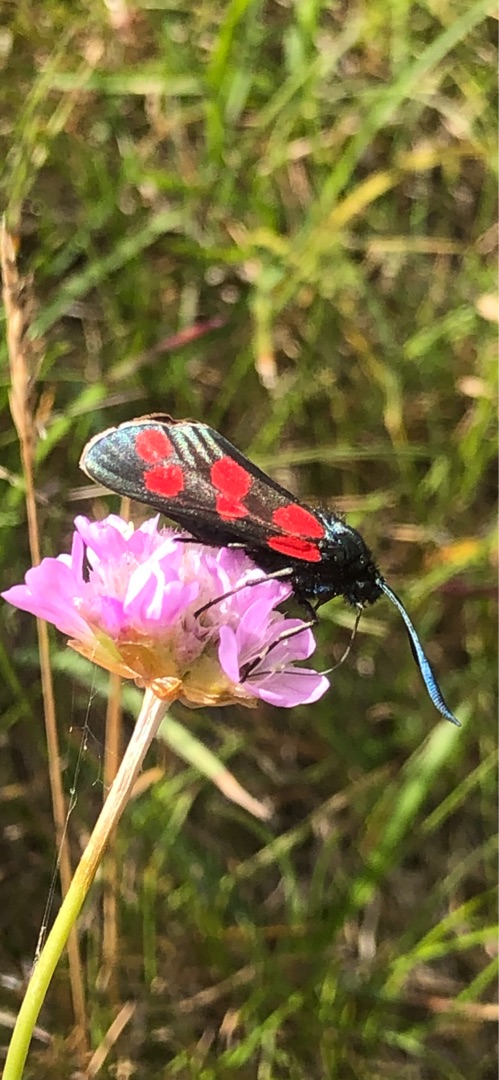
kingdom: Animalia
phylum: Arthropoda
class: Insecta
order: Lepidoptera
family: Zygaenidae
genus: Zygaena
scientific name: Zygaena filipendulae
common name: Seksplettet køllesværmer
